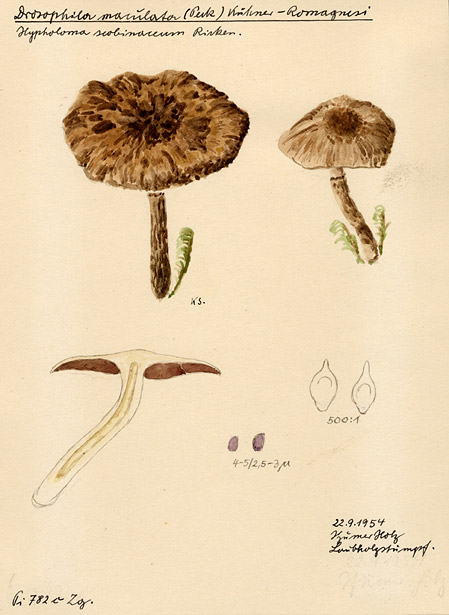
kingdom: Fungi
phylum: Basidiomycota
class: Agaricomycetes
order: Agaricales
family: Psathyrellaceae
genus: Psathyrella
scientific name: Psathyrella maculata
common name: Spotted brittlestem
